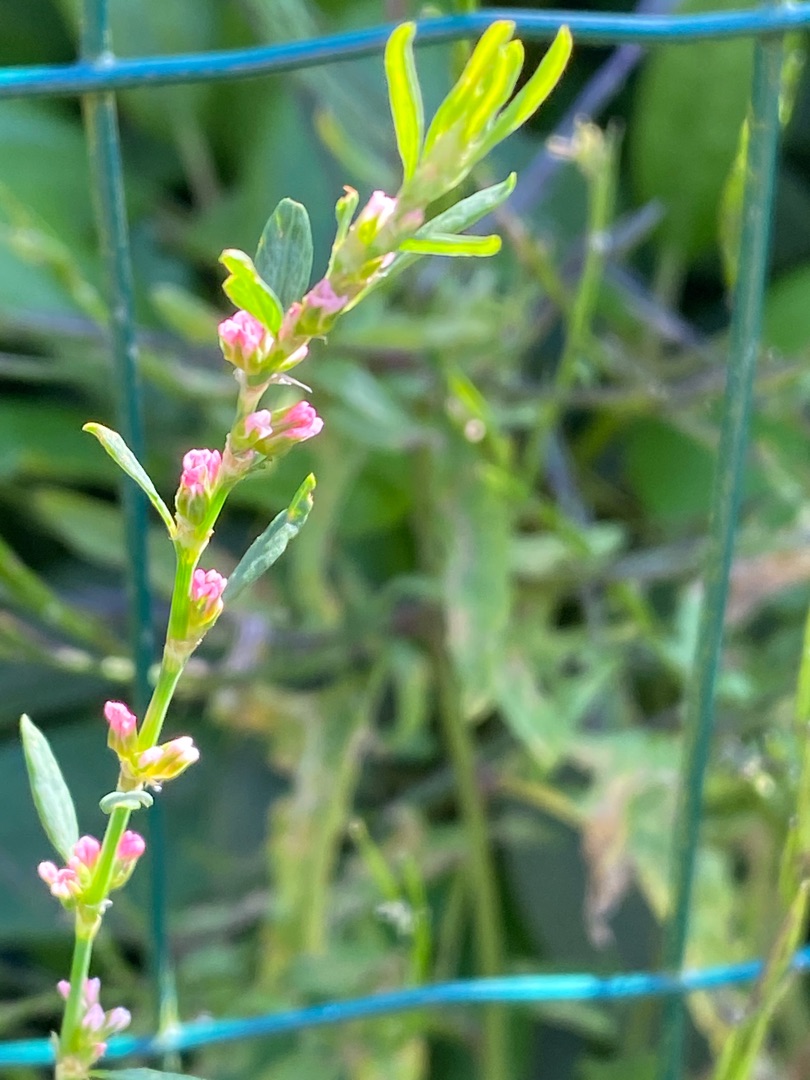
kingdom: Plantae
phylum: Tracheophyta
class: Magnoliopsida
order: Caryophyllales
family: Polygonaceae
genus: Polygonum
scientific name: Polygonum aviculare
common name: Vej-pileurt
